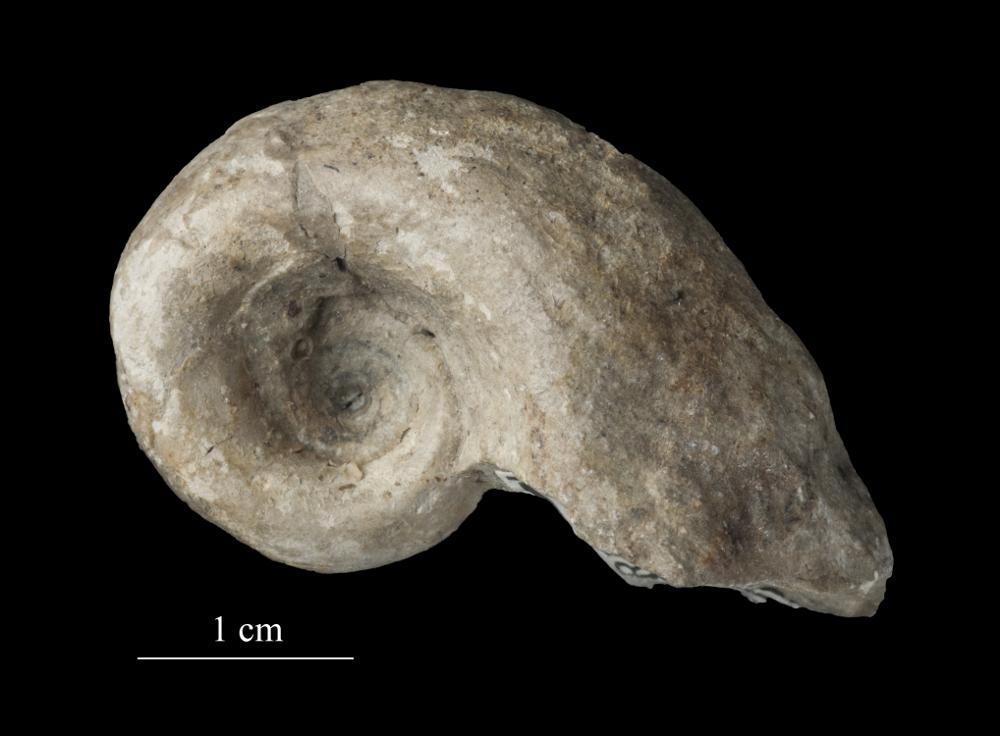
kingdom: Animalia
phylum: Mollusca
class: Gastropoda
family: Bellerophontidae
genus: Bellerophon
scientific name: Bellerophon
